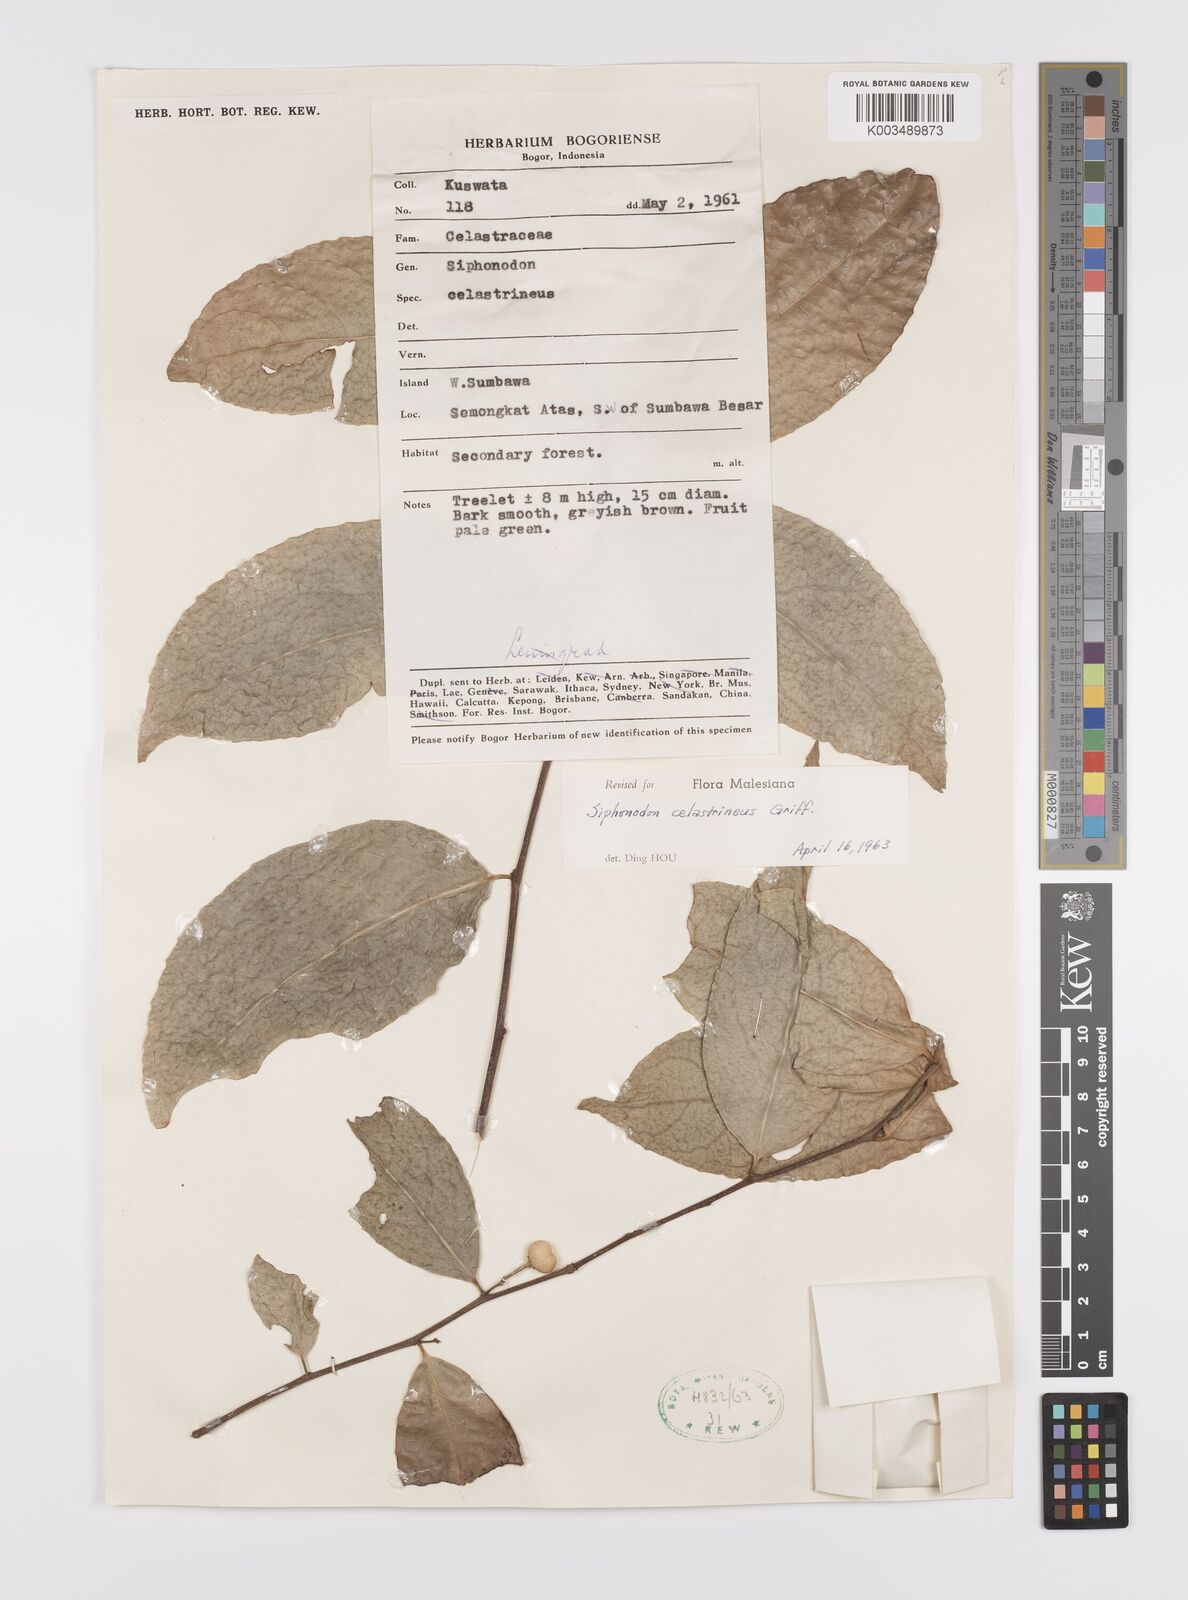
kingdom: Plantae
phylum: Tracheophyta
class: Magnoliopsida
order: Celastrales
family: Celastraceae
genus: Siphonodon
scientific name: Siphonodon celastrineus
